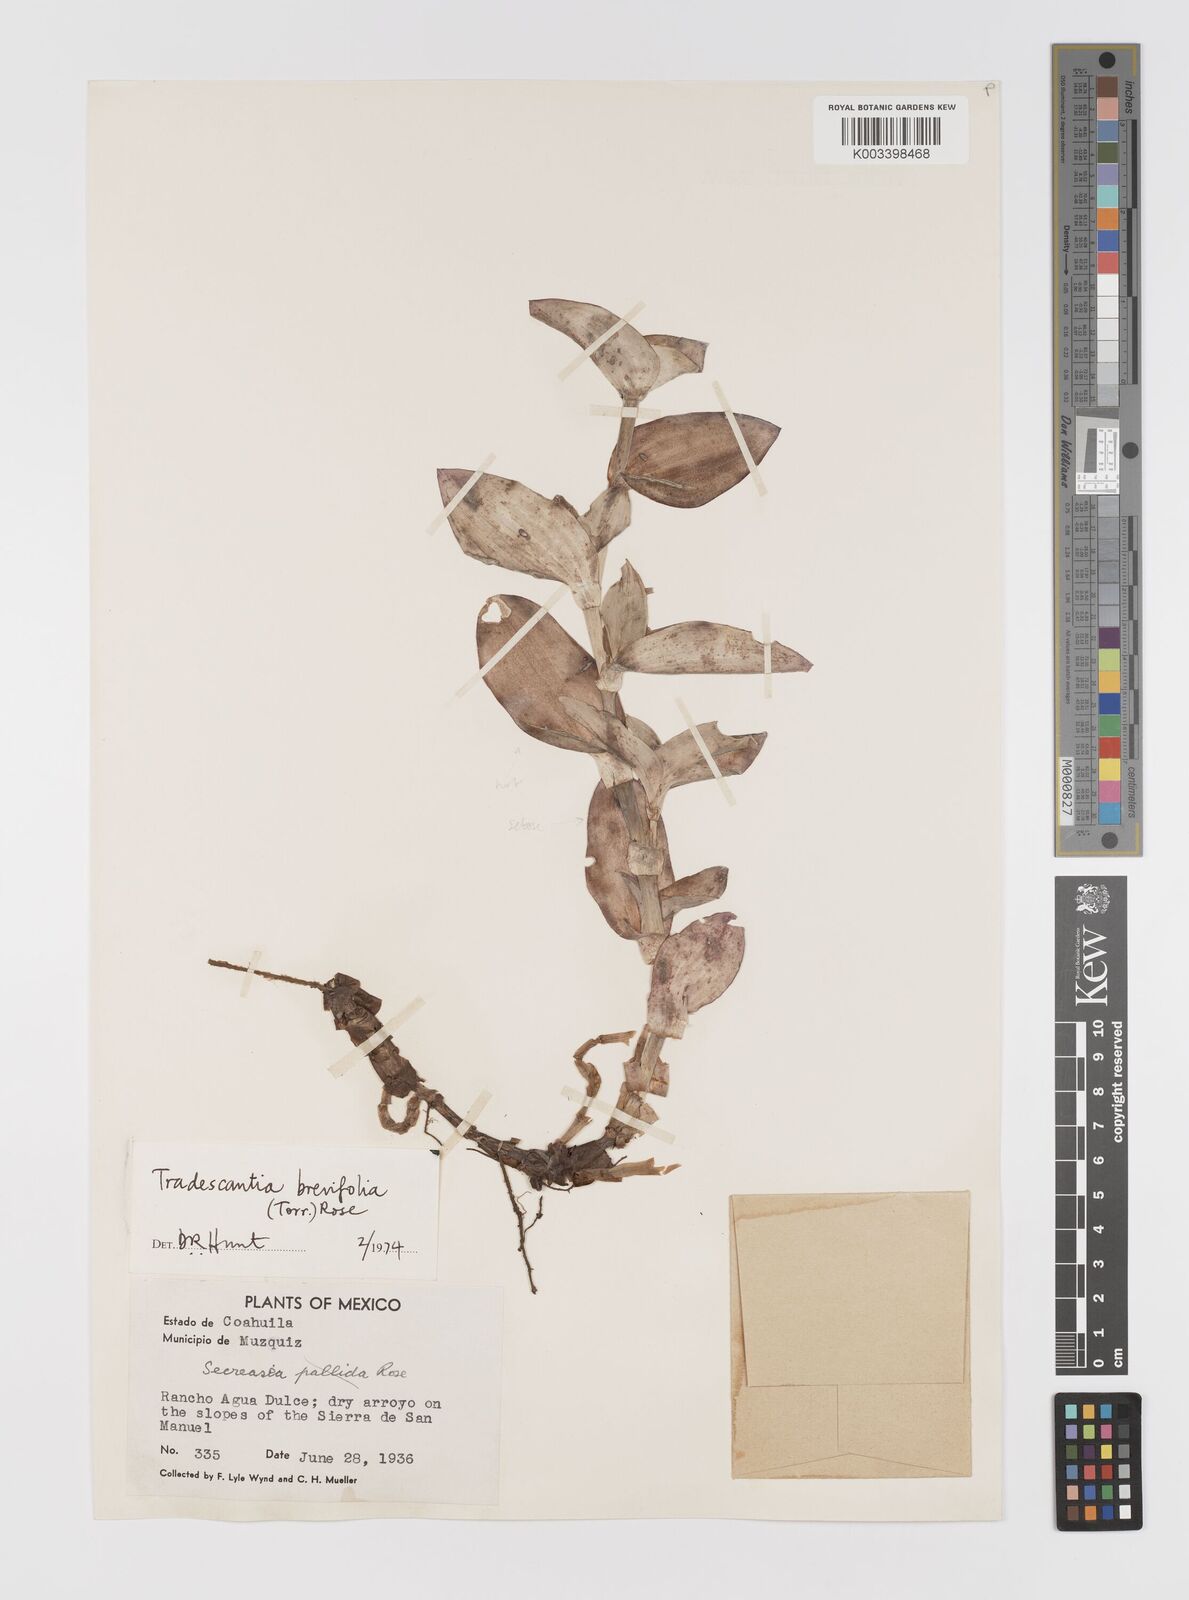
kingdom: Plantae
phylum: Tracheophyta
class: Liliopsida
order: Commelinales
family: Commelinaceae
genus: Tradescantia
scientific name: Tradescantia brevifolia
